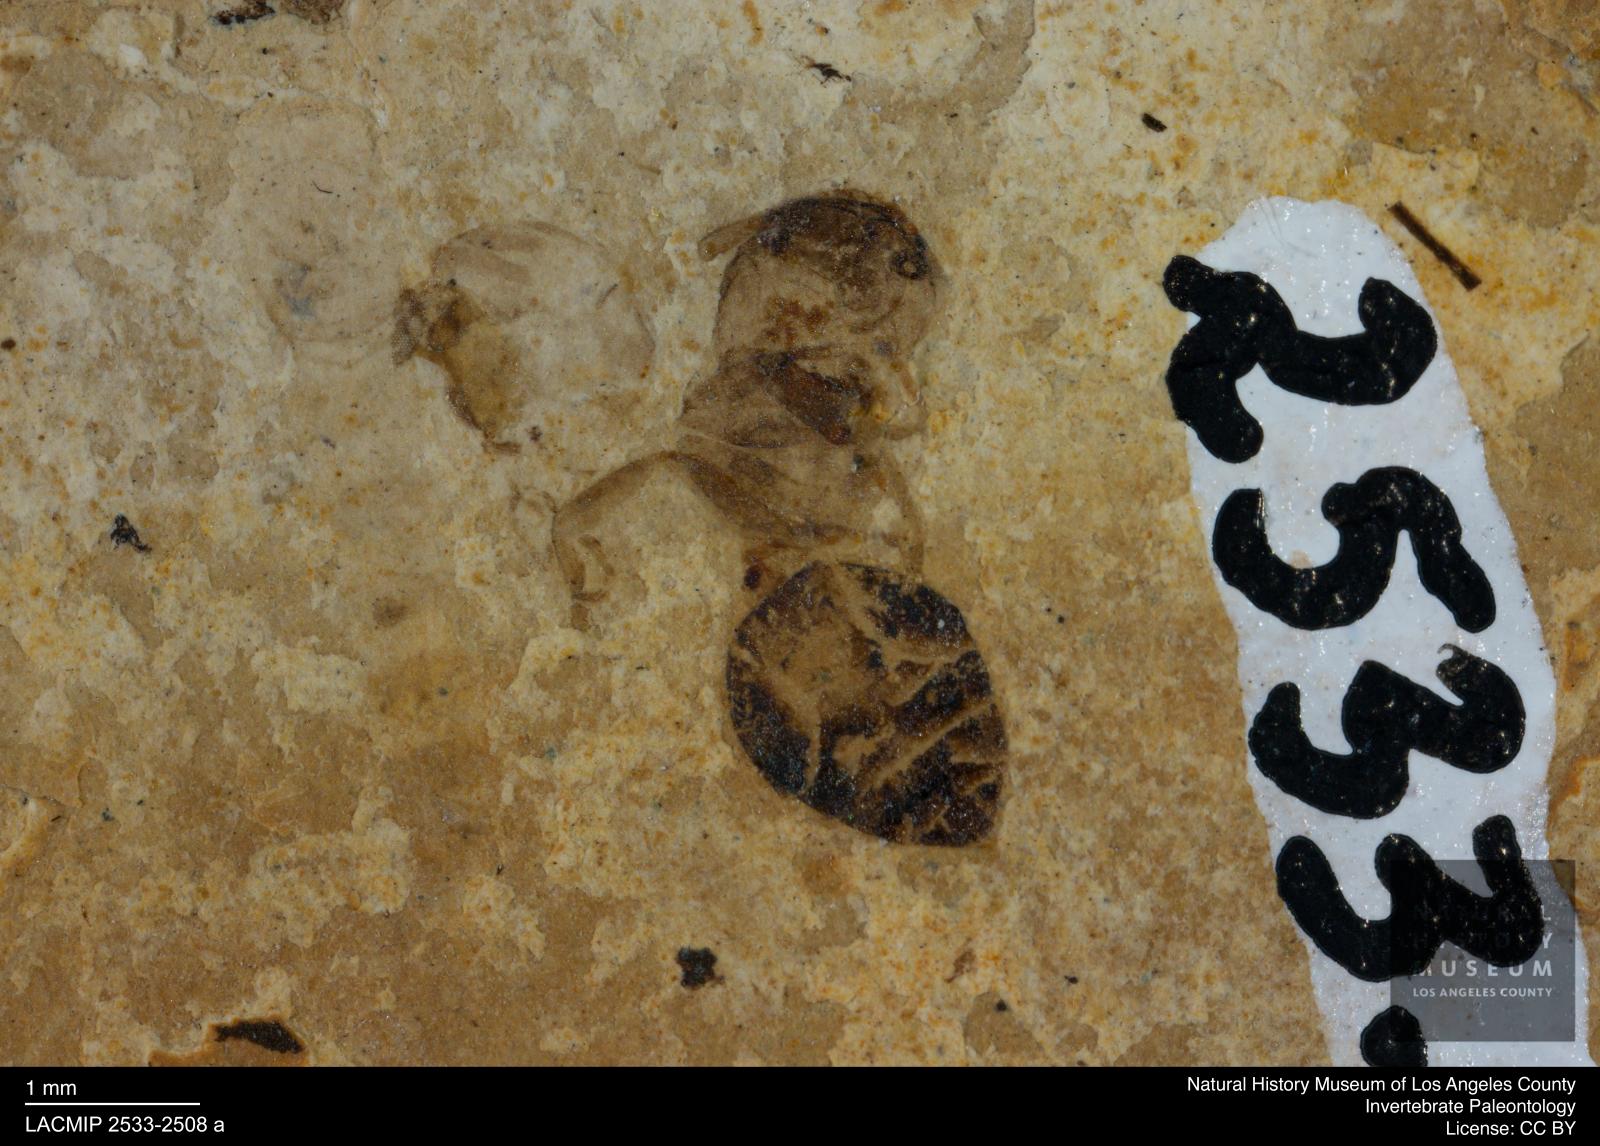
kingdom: Animalia
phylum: Arthropoda
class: Insecta
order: Hymenoptera
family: Formicidae
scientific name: Formicidae
